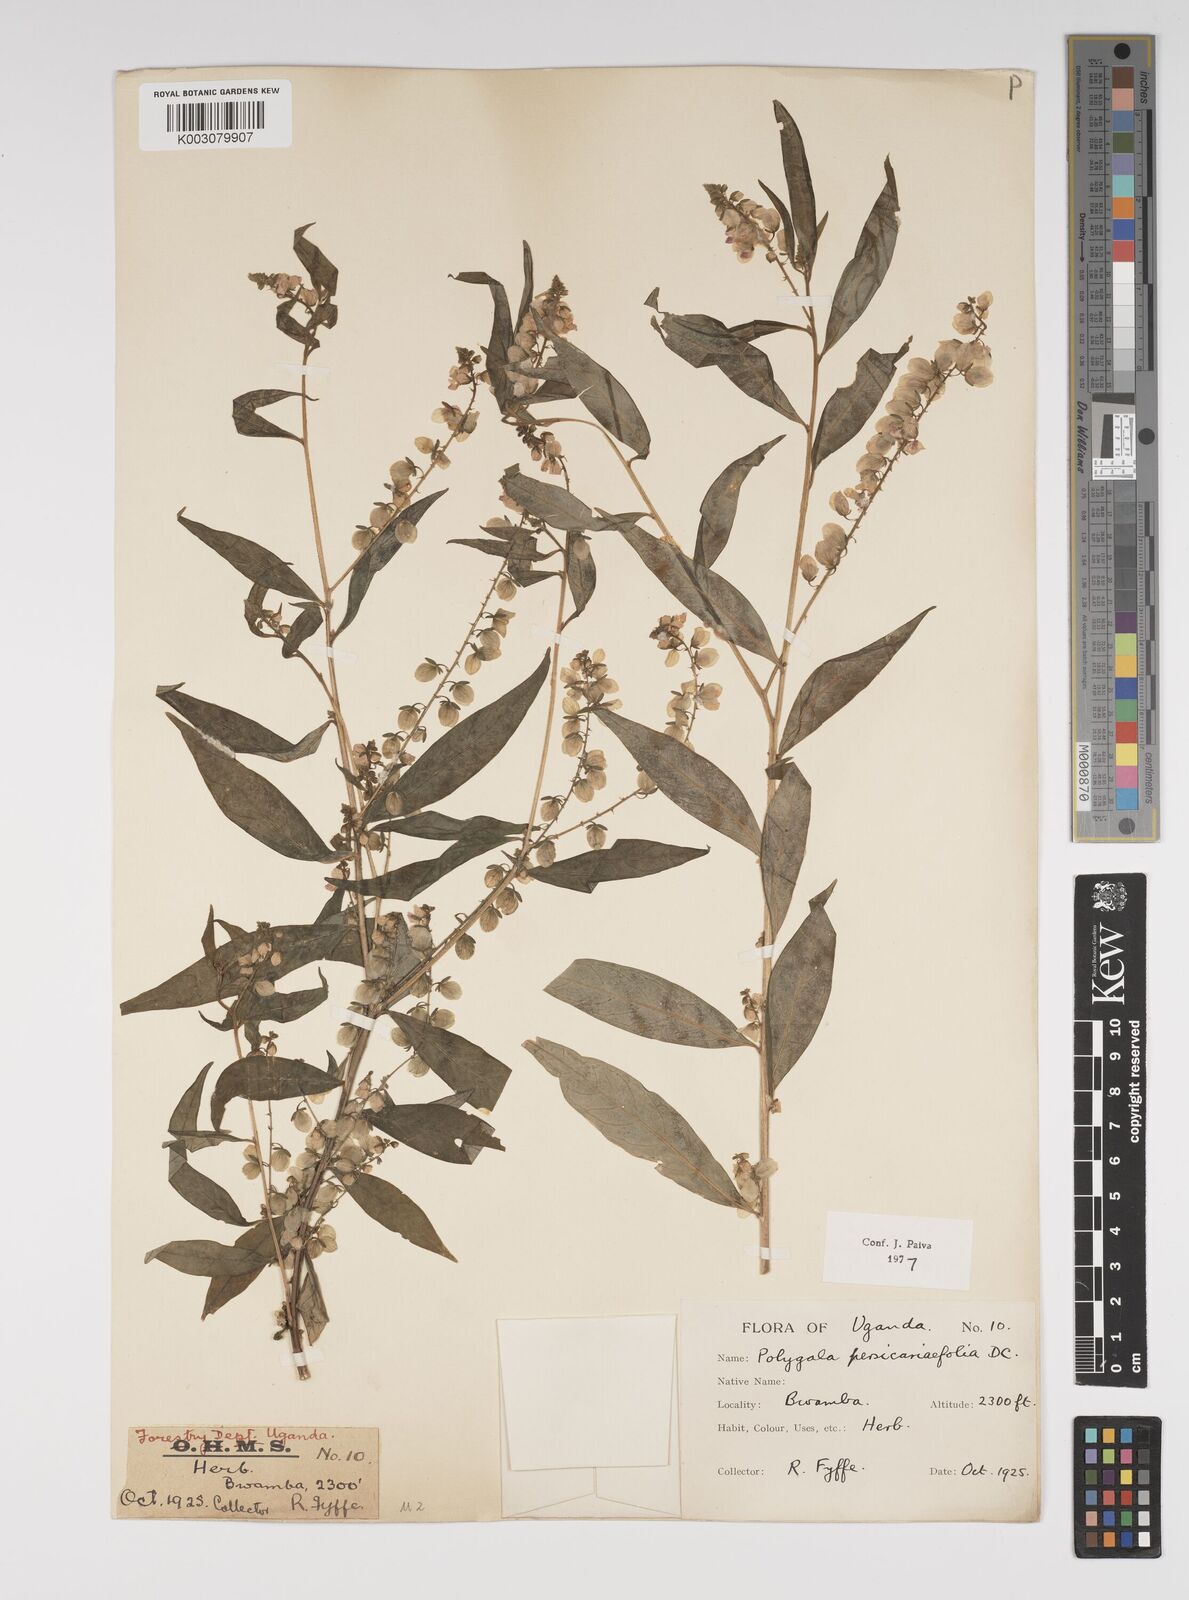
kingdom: Plantae
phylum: Tracheophyta
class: Magnoliopsida
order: Fabales
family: Polygalaceae
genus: Polygala
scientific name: Polygala persicariifolia
